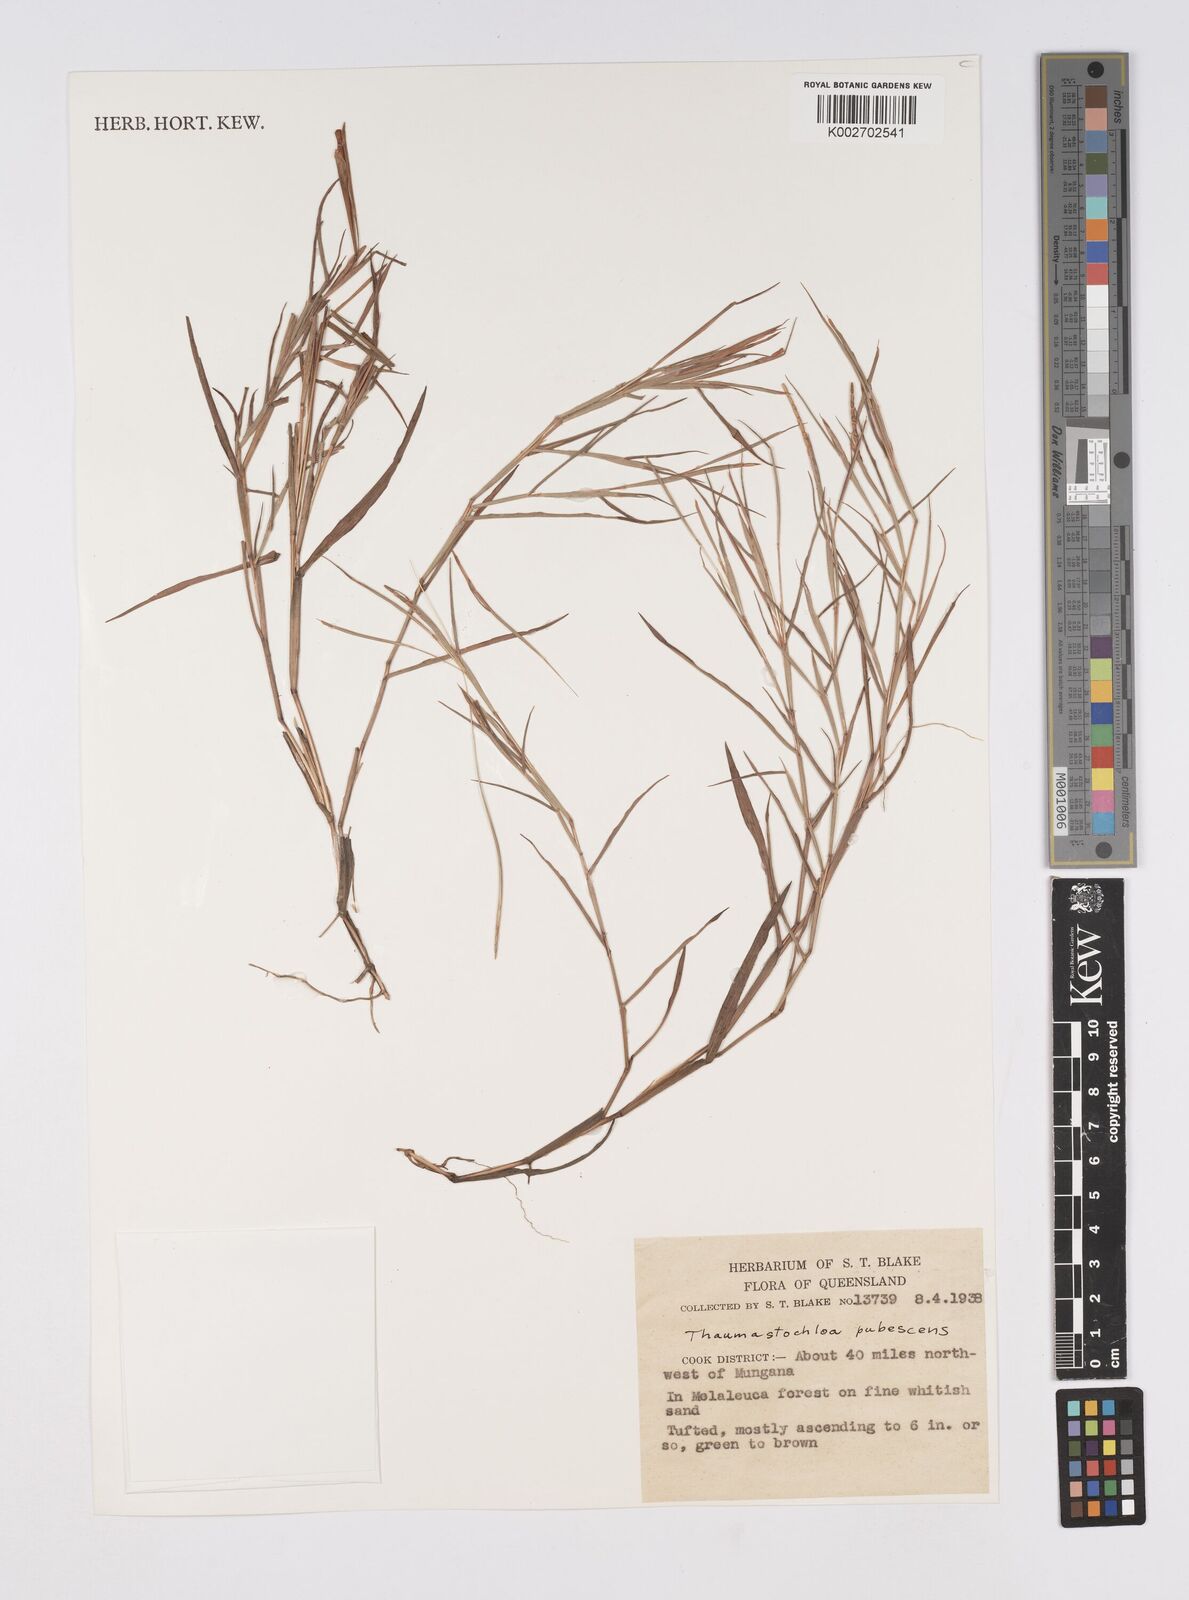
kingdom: Plantae
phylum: Tracheophyta
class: Liliopsida
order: Poales
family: Poaceae
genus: Thaumastochloa
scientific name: Thaumastochloa pubescens
